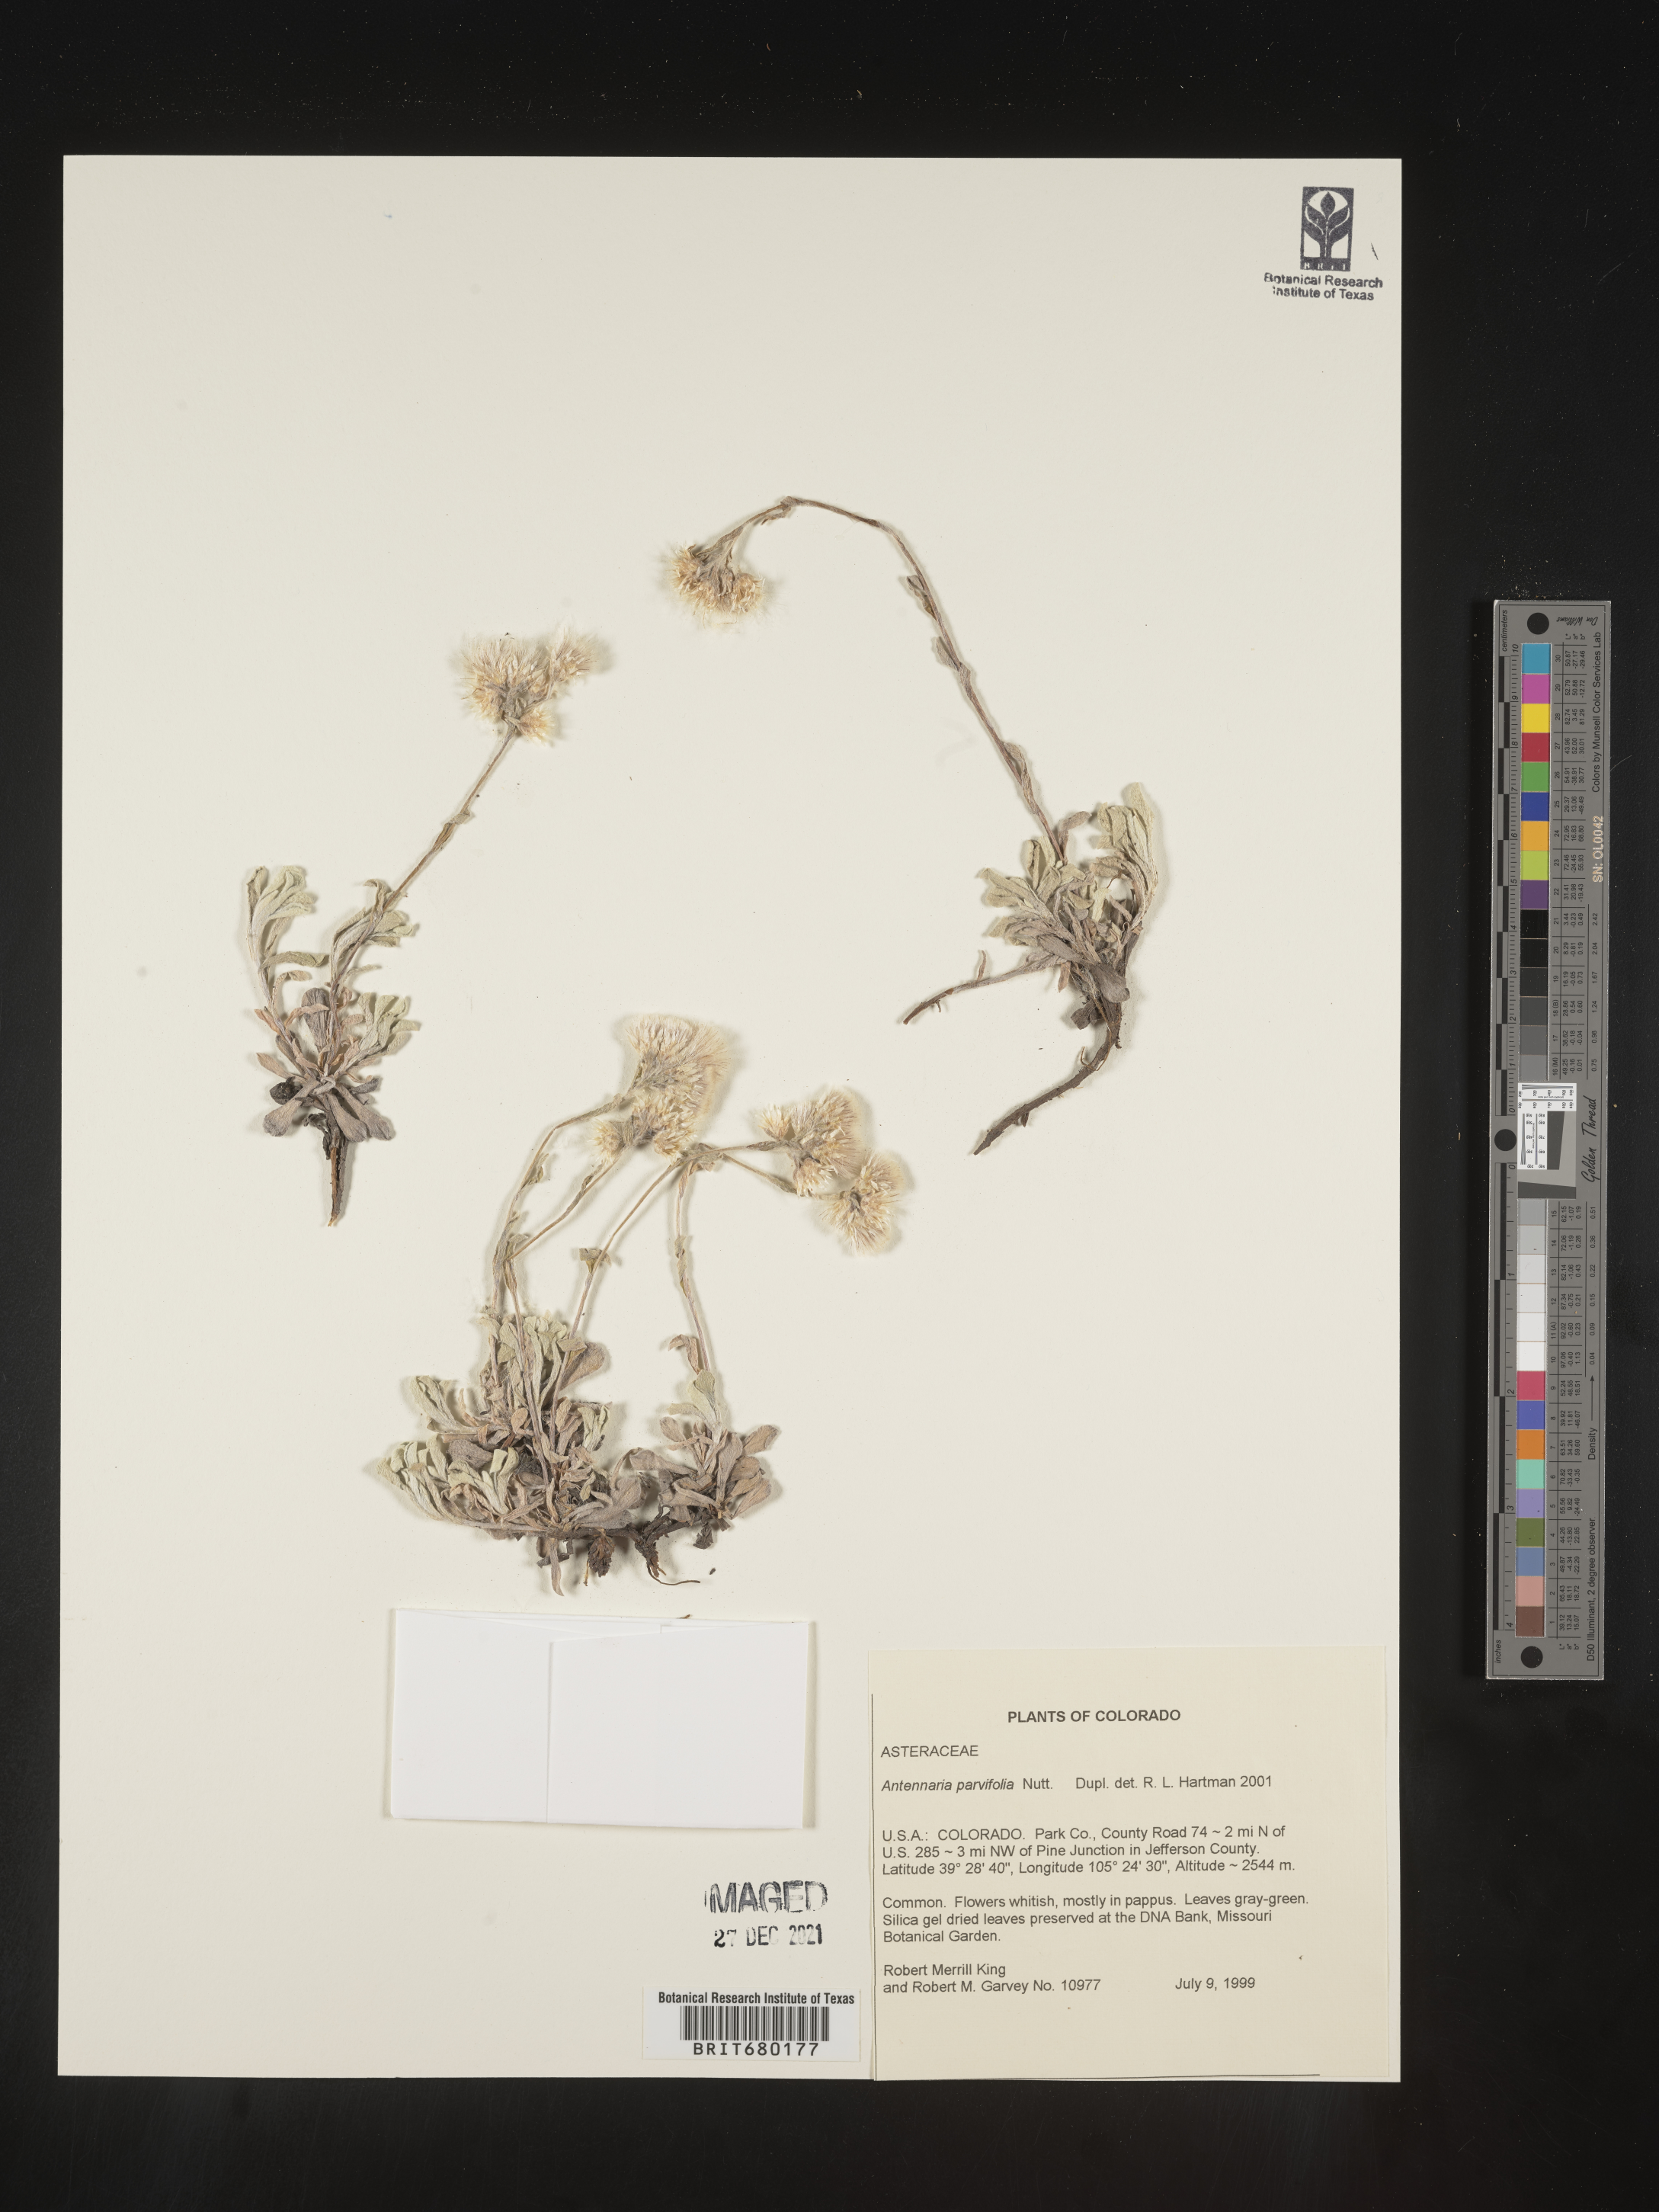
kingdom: Plantae
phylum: Tracheophyta
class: Magnoliopsida
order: Asterales
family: Asteraceae
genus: Antennaria
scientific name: Antennaria plantaginifolia
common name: Plantain-leaved pussytoes
